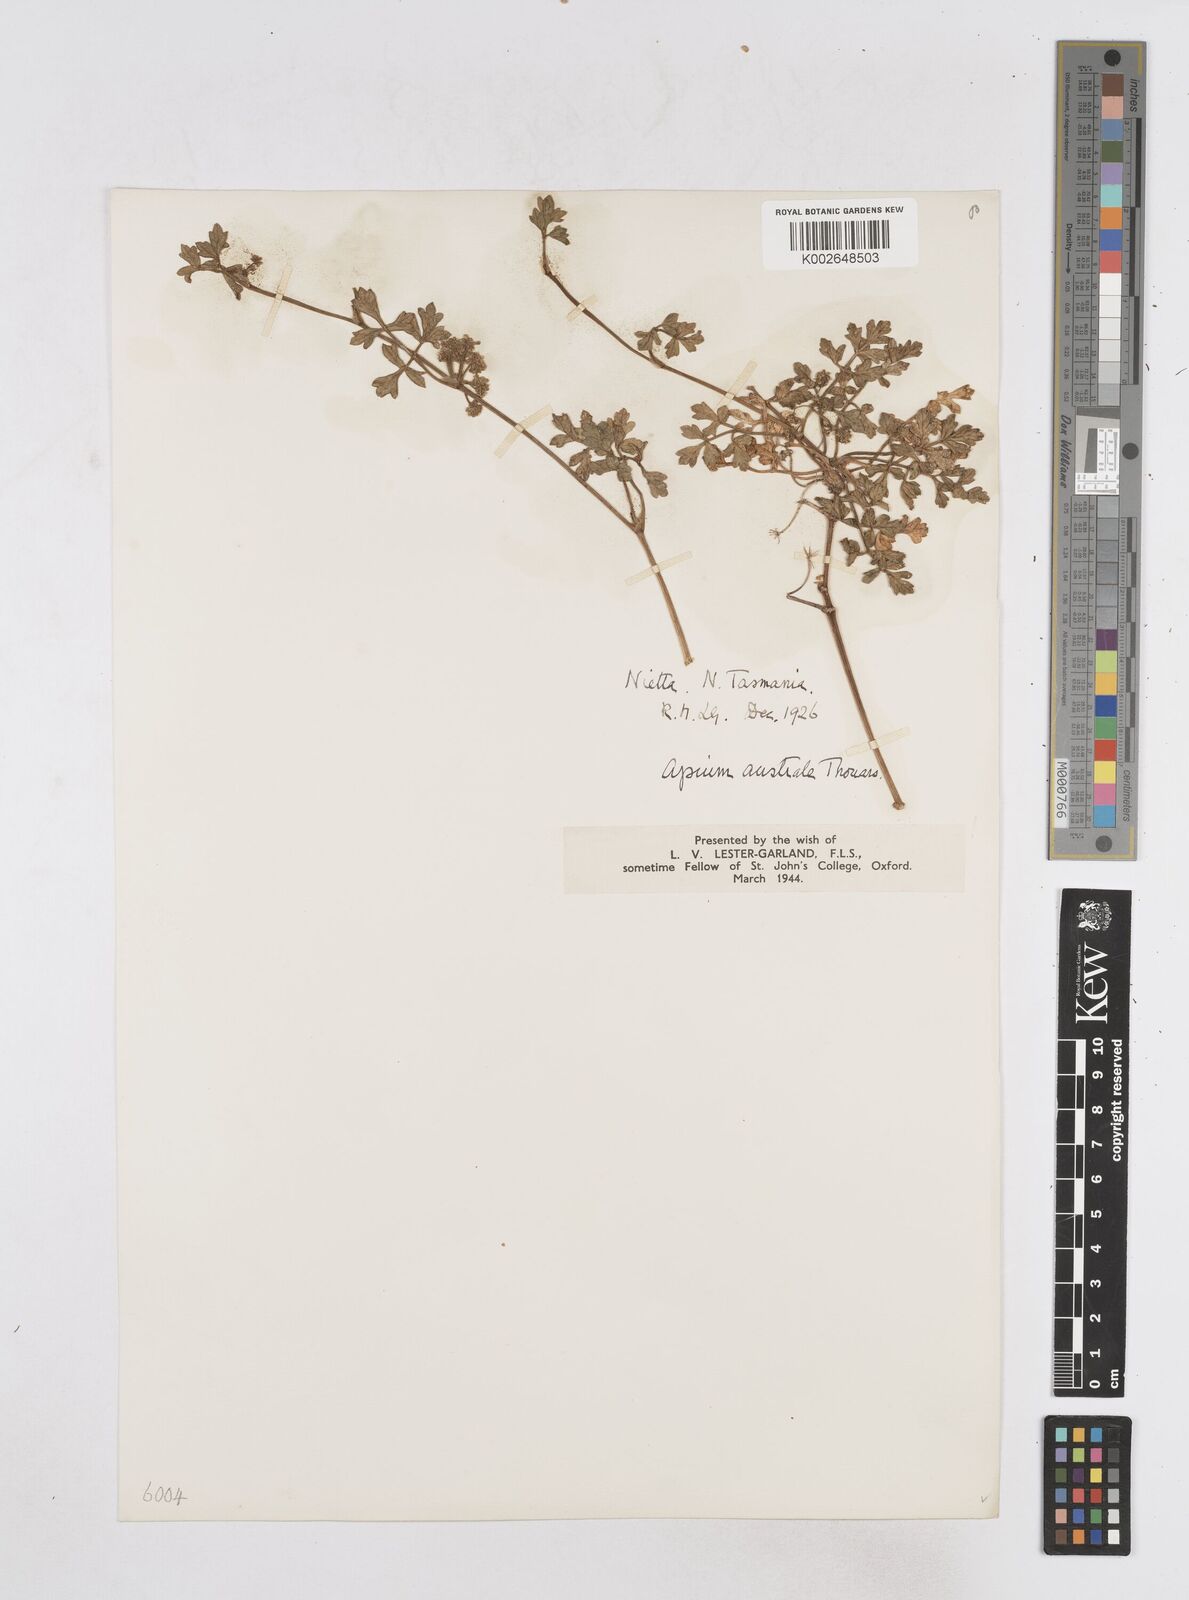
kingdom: Plantae
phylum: Tracheophyta
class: Magnoliopsida
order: Apiales
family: Apiaceae
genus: Apium
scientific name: Apium prostratum
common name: Prostrate marshwort
